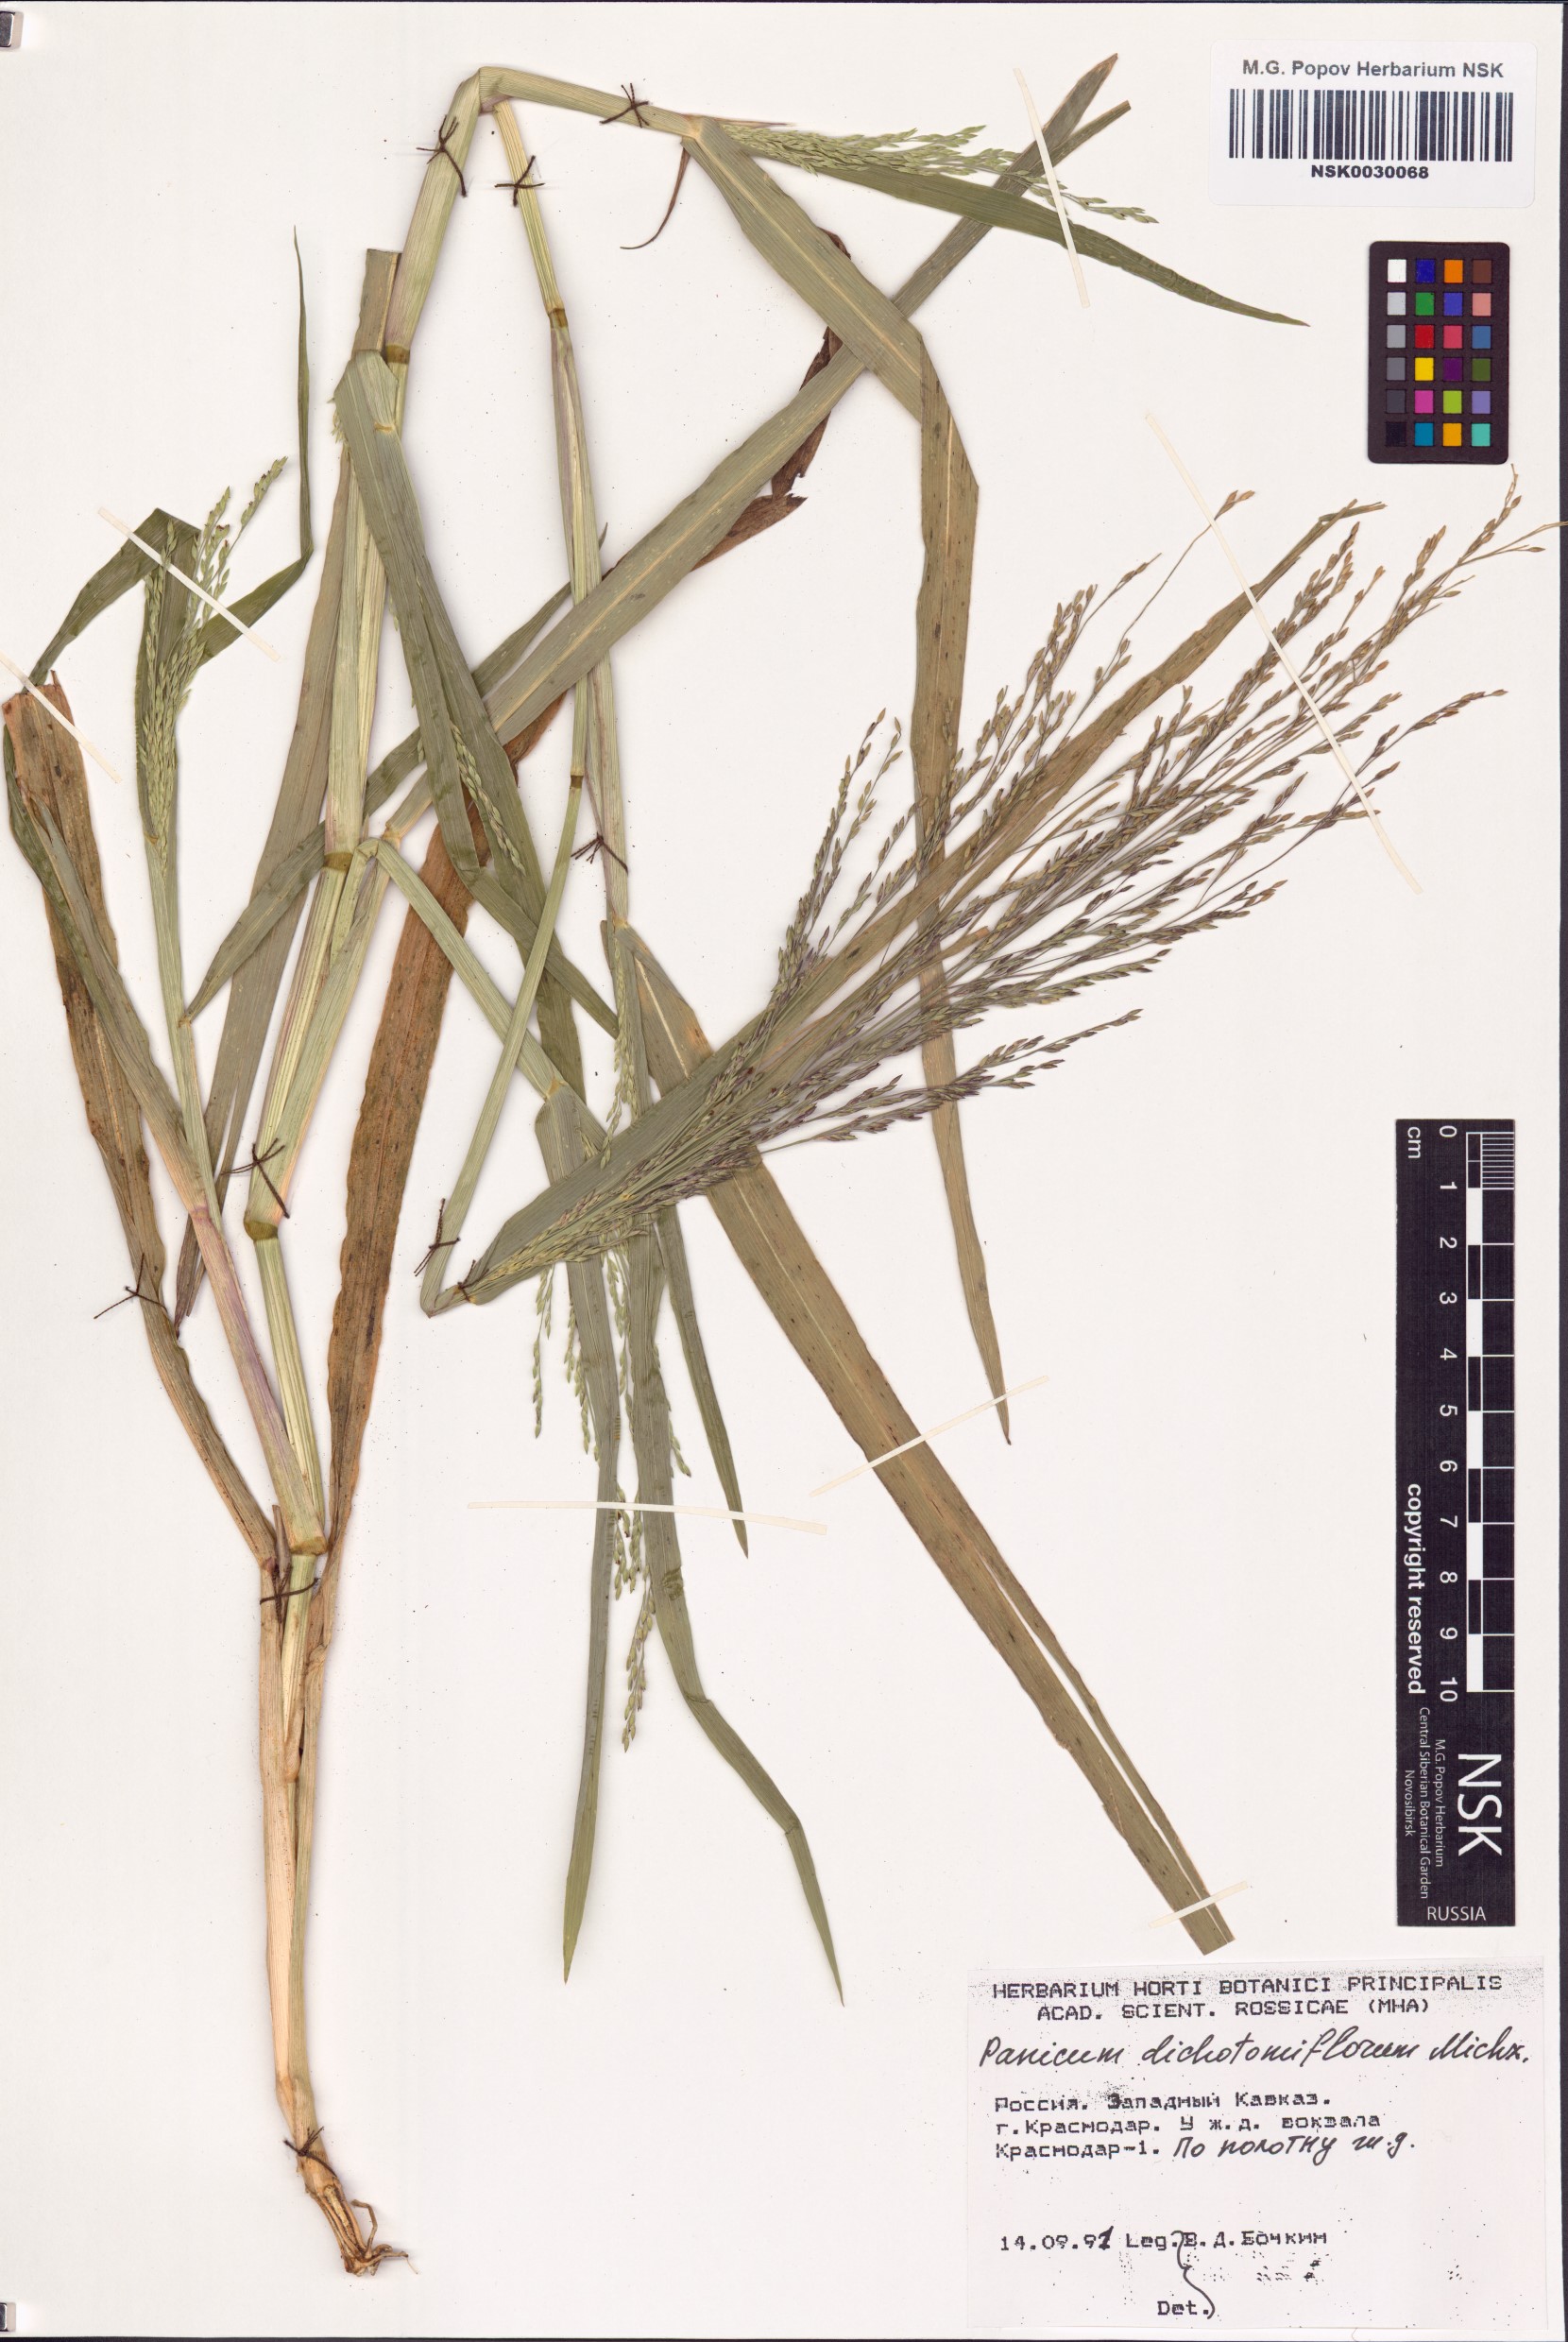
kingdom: Plantae
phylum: Tracheophyta
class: Liliopsida
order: Poales
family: Poaceae
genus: Panicum
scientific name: Panicum dichotomiflorum
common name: Autumn millet
